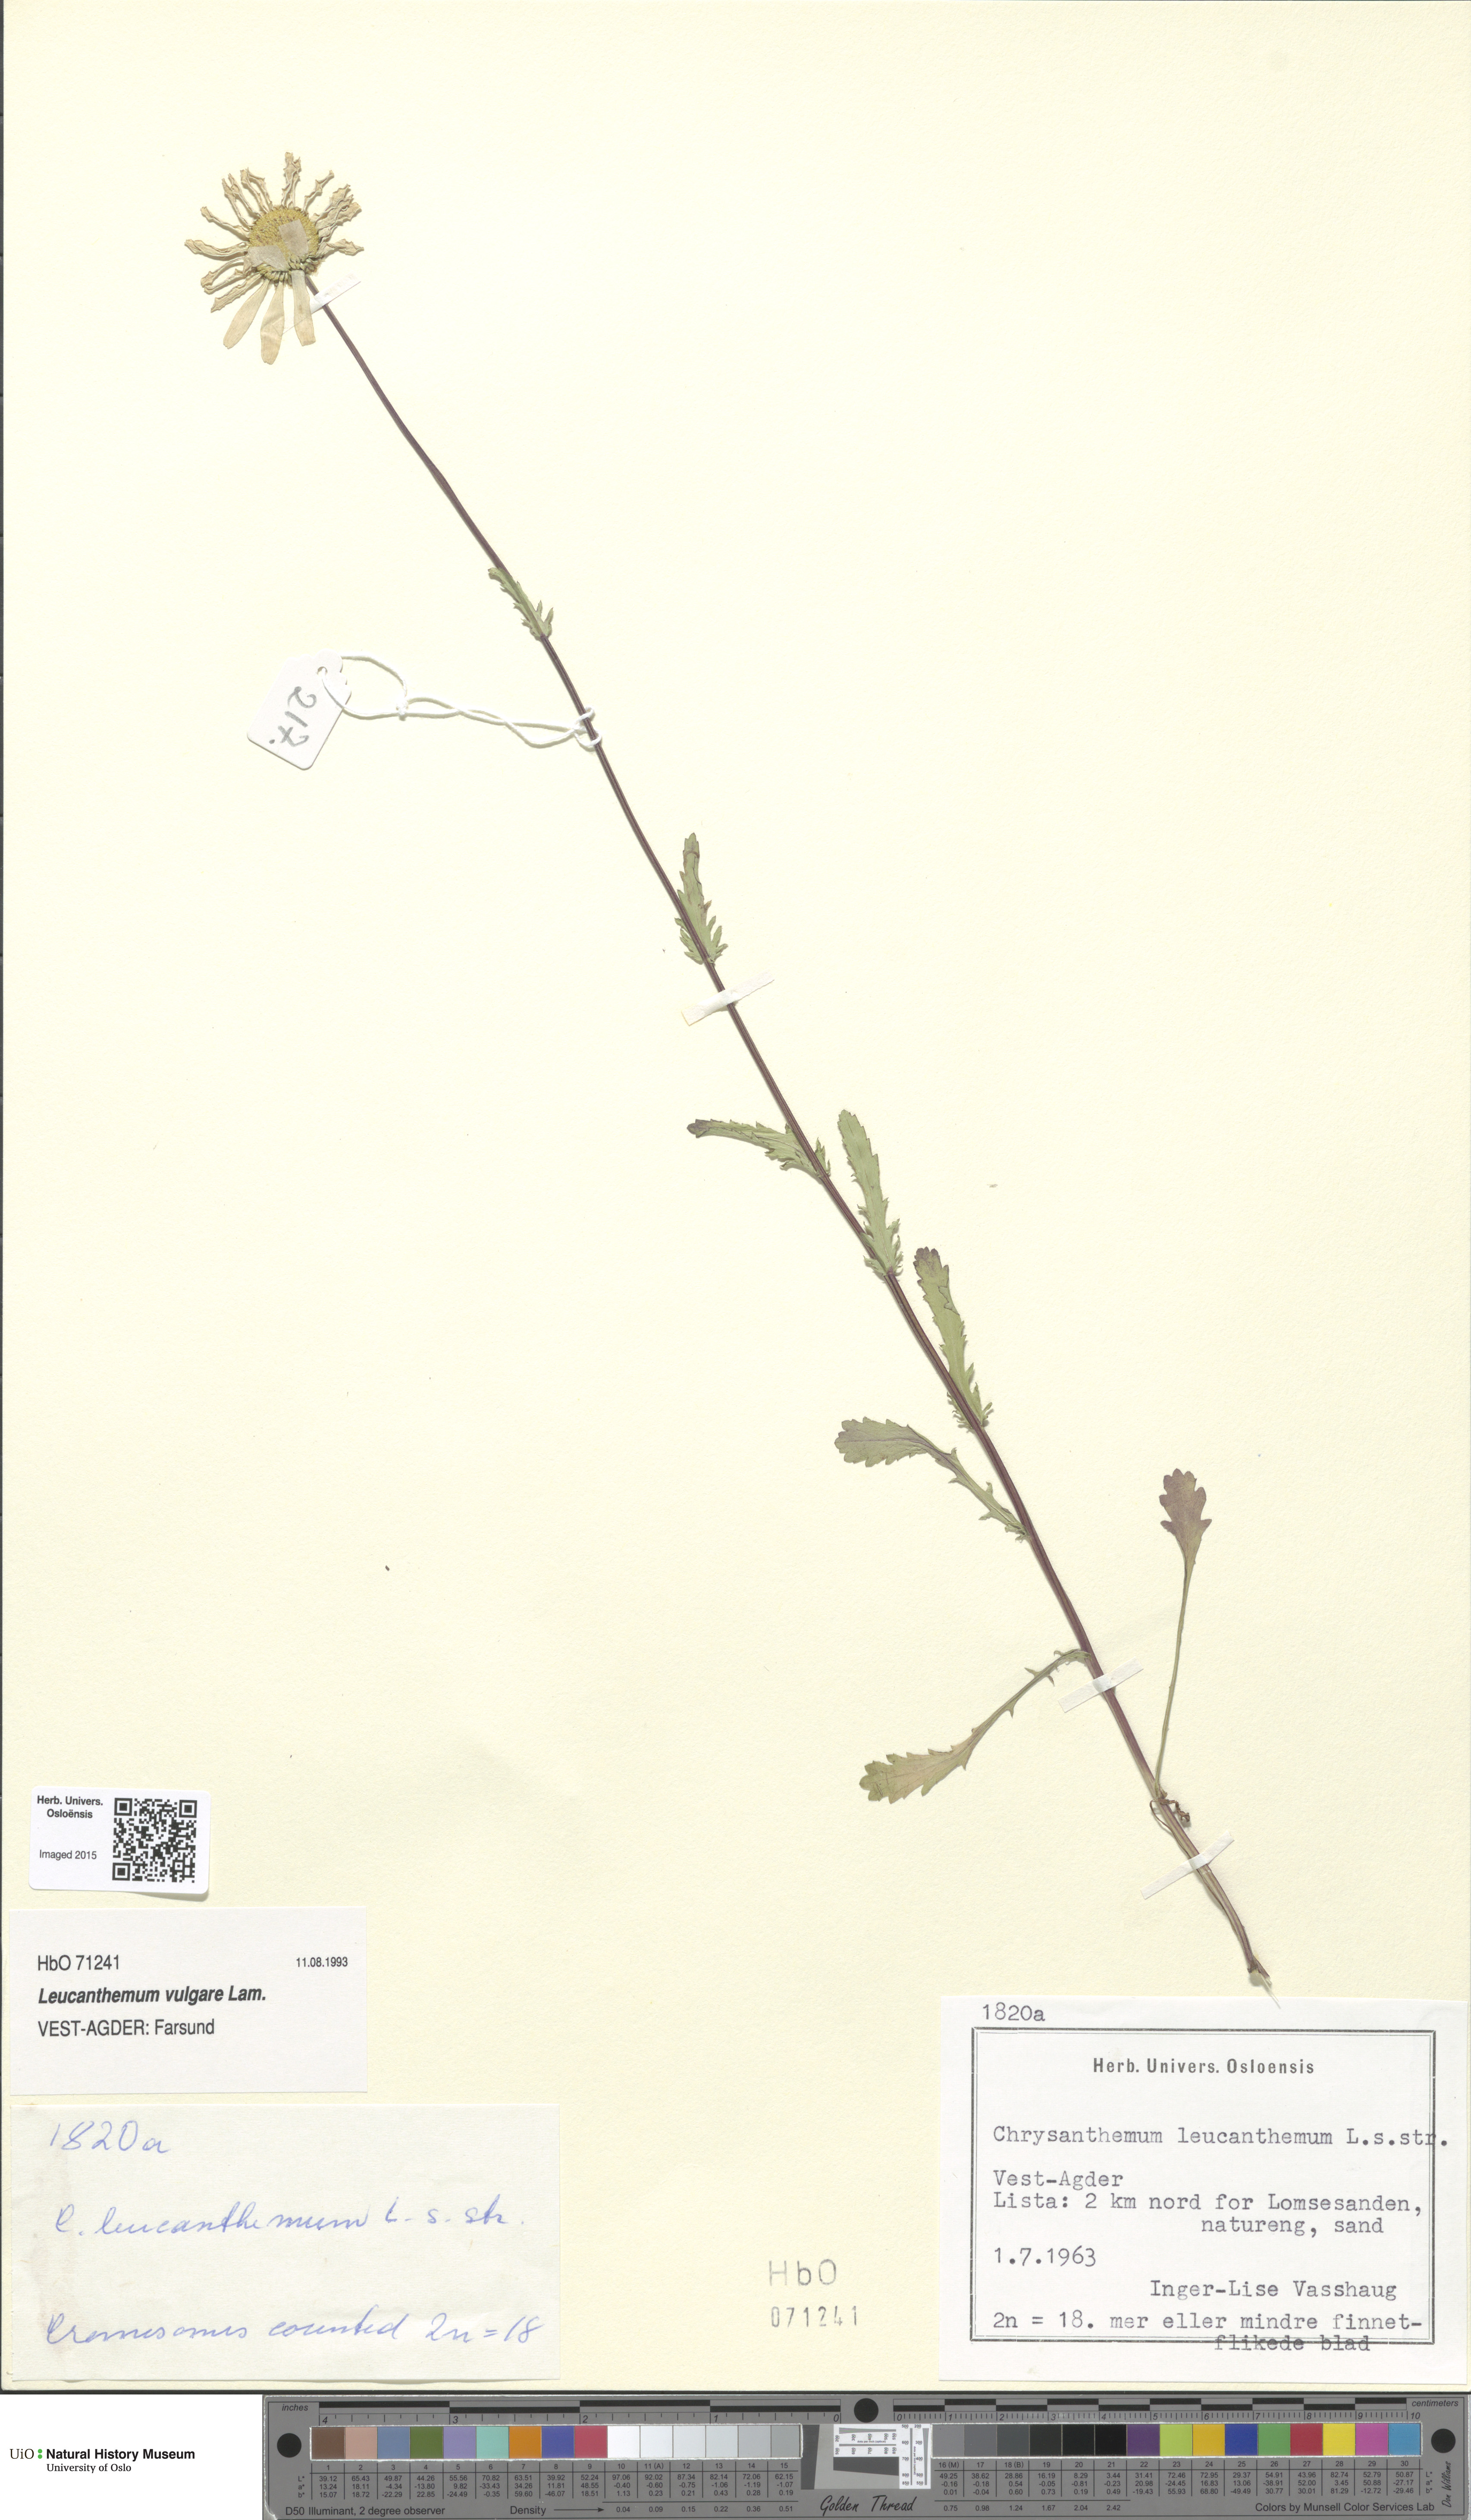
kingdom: Plantae
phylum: Tracheophyta
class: Magnoliopsida
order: Asterales
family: Asteraceae
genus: Leucanthemum
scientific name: Leucanthemum vulgare
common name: Oxeye daisy
